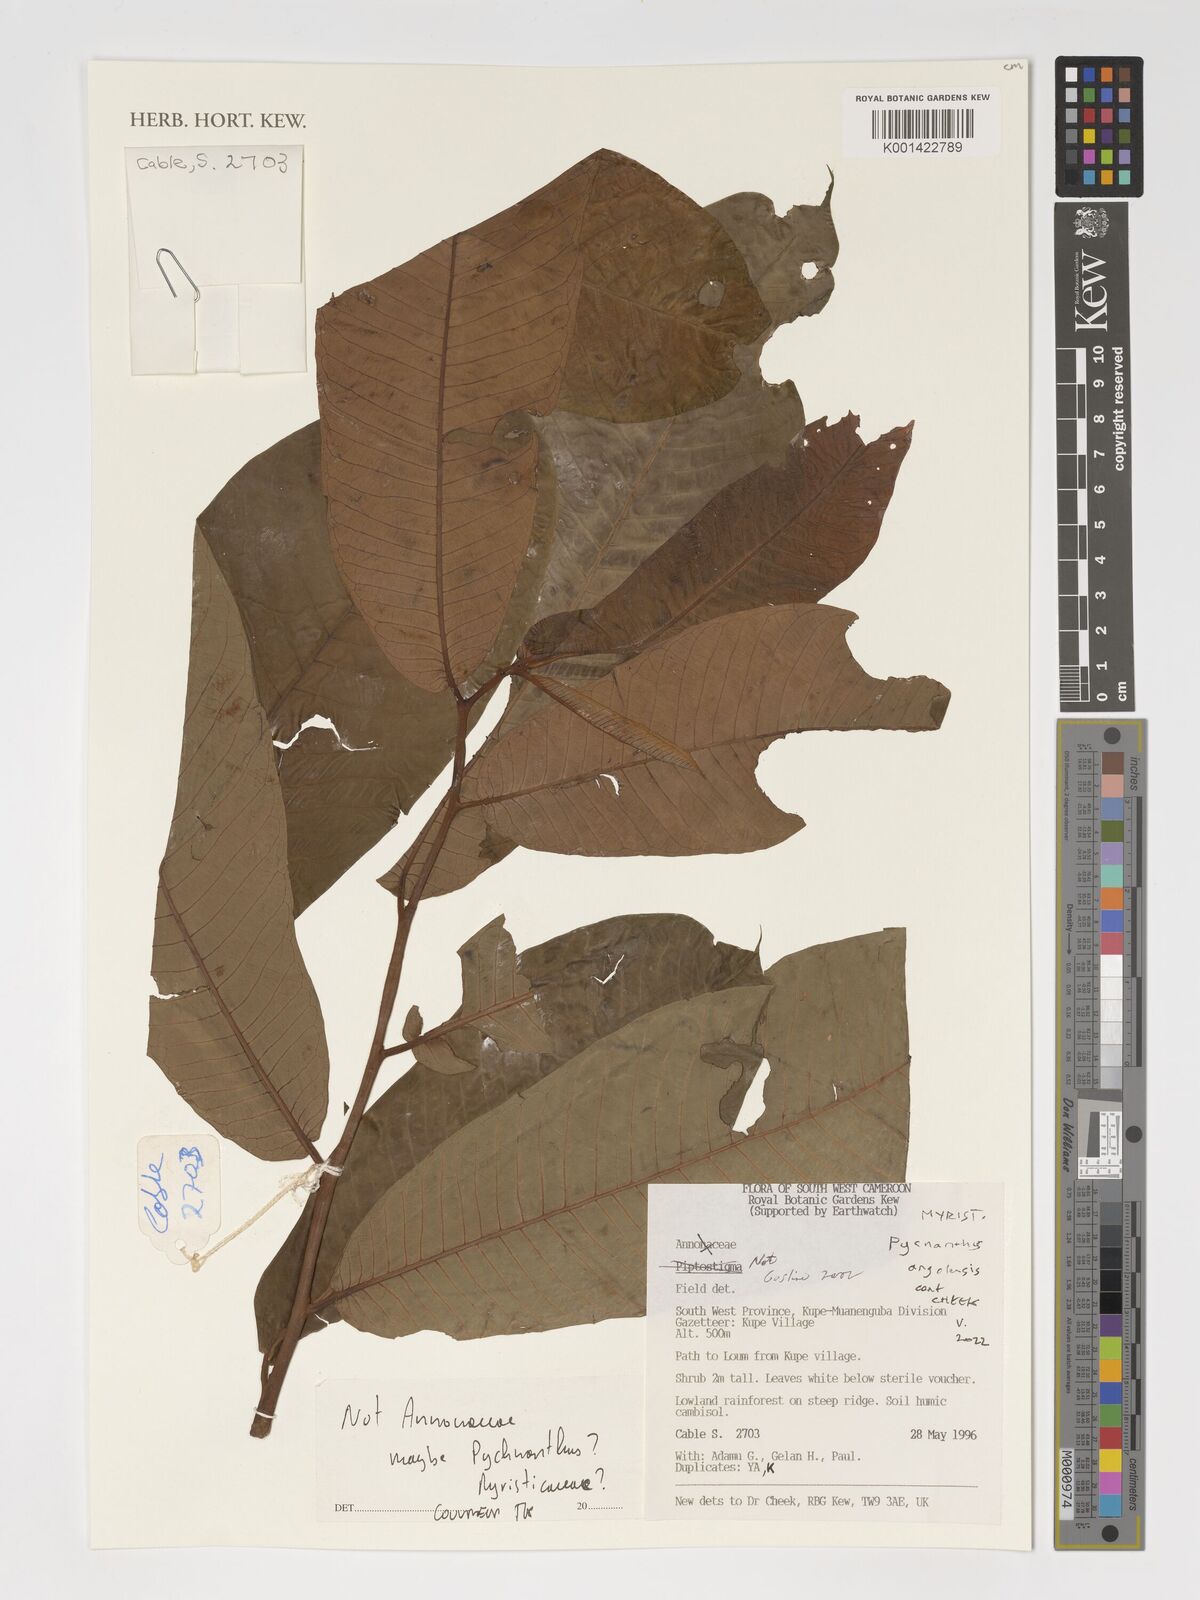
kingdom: Plantae
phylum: Tracheophyta
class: Magnoliopsida
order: Magnoliales
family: Myristicaceae
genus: Pycnanthus
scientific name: Pycnanthus angolensis
